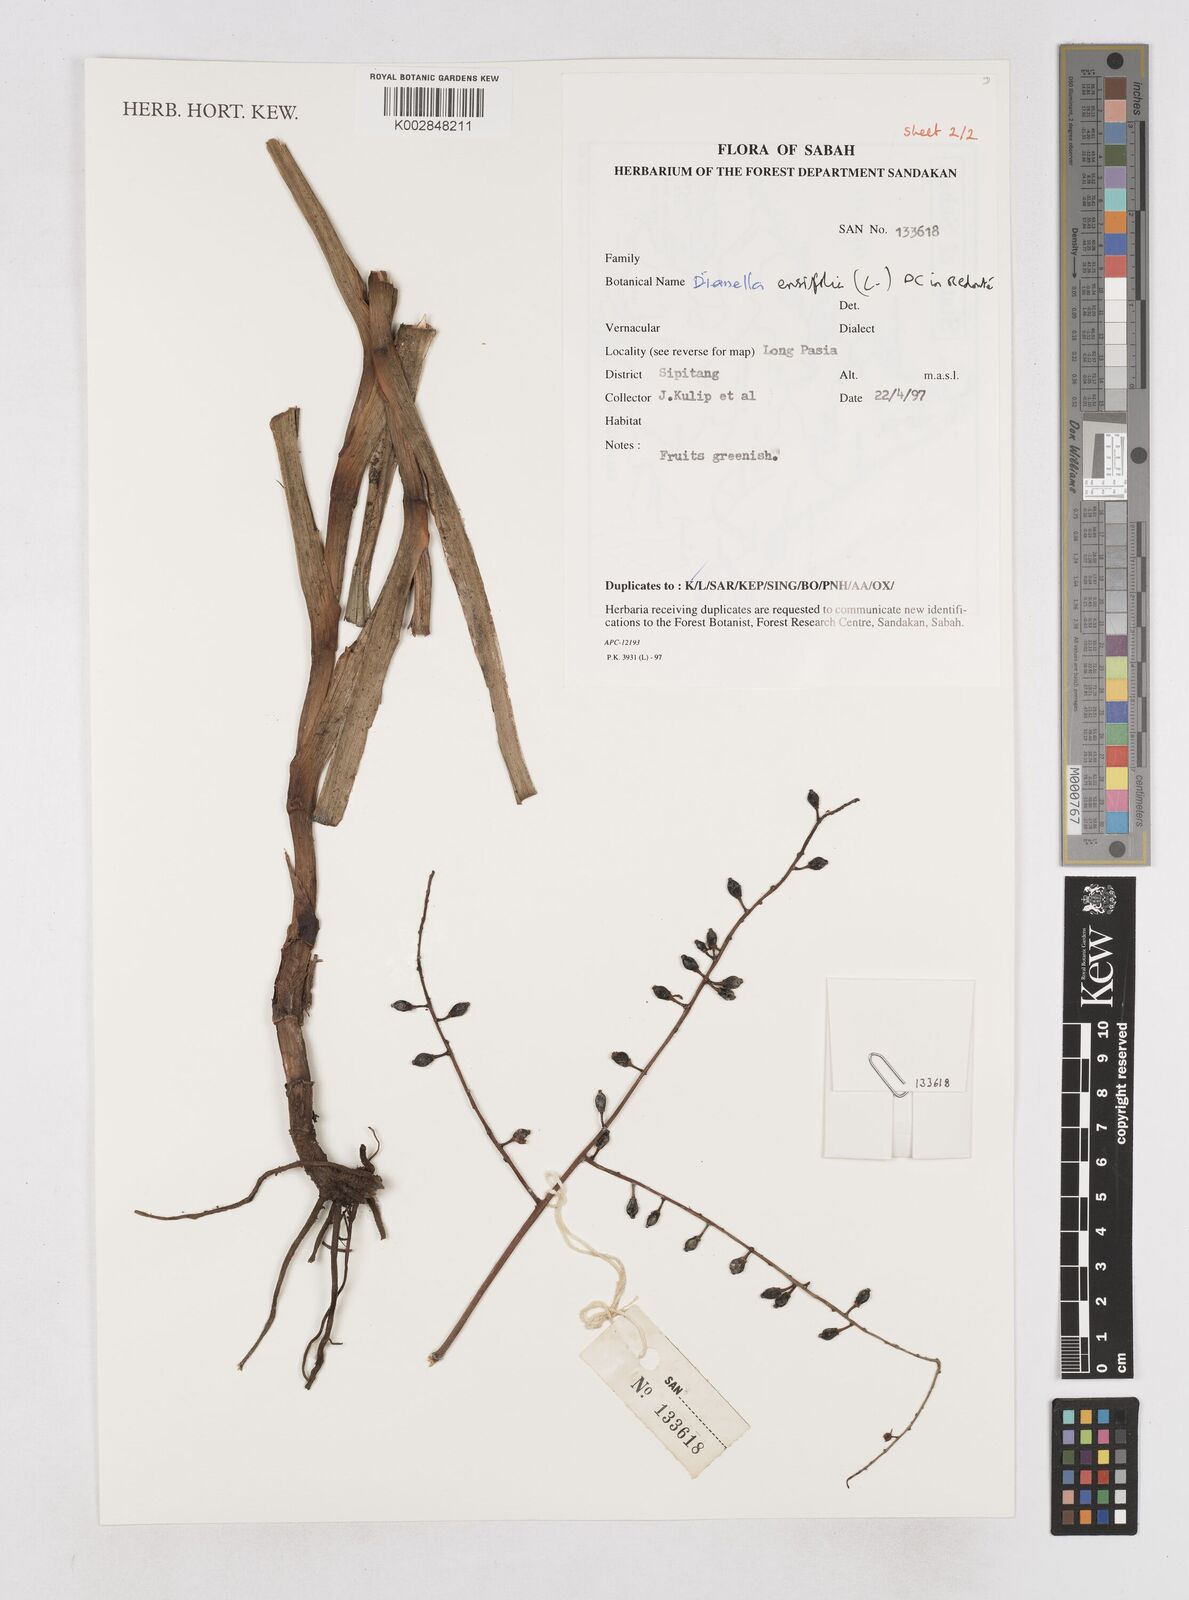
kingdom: Plantae
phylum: Tracheophyta
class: Liliopsida
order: Asparagales
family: Asphodelaceae
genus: Dianella
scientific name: Dianella ensifolia
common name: New zealand lilyplant
